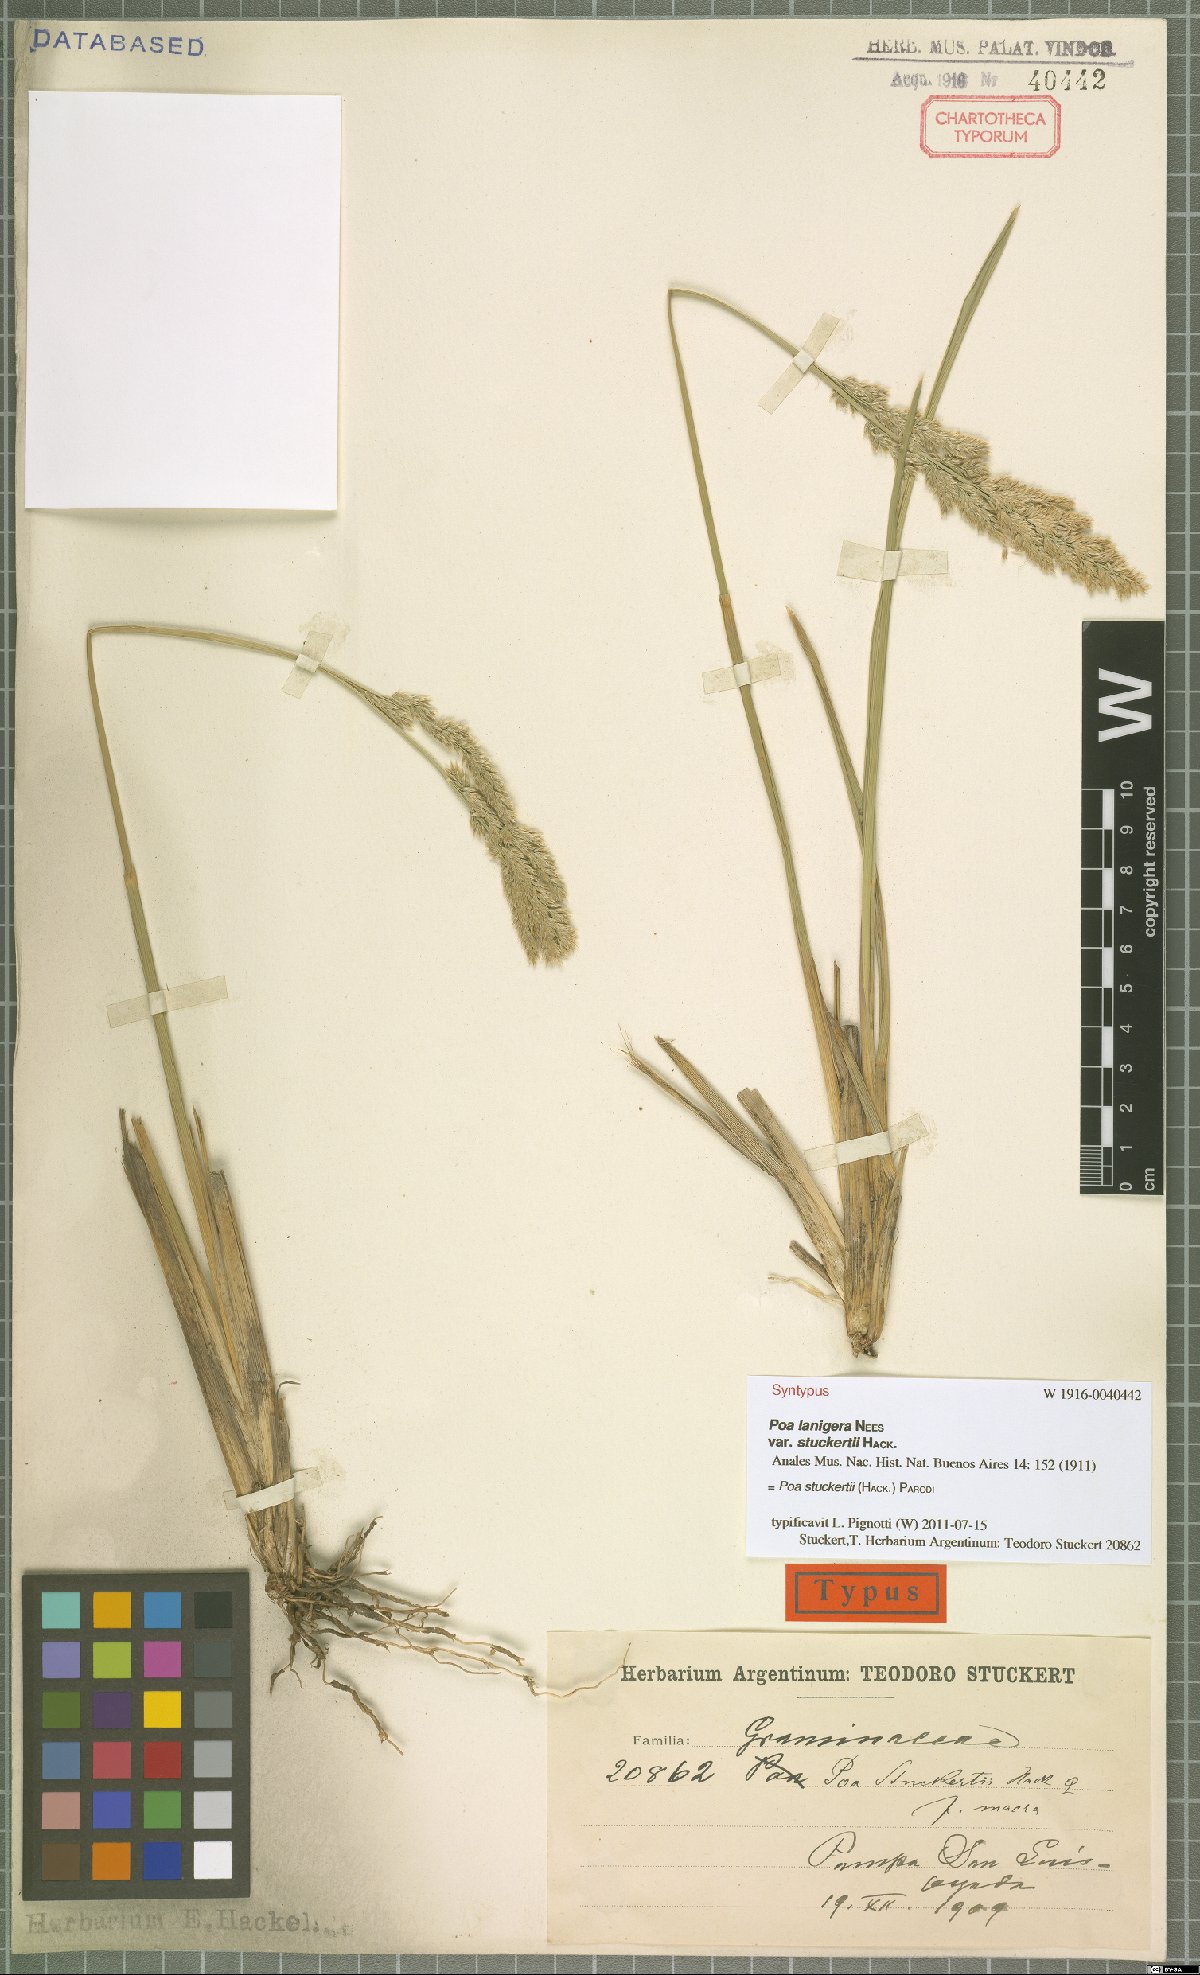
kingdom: Plantae
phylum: Tracheophyta
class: Liliopsida
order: Poales
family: Poaceae
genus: Poa
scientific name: Poa stuckertii
